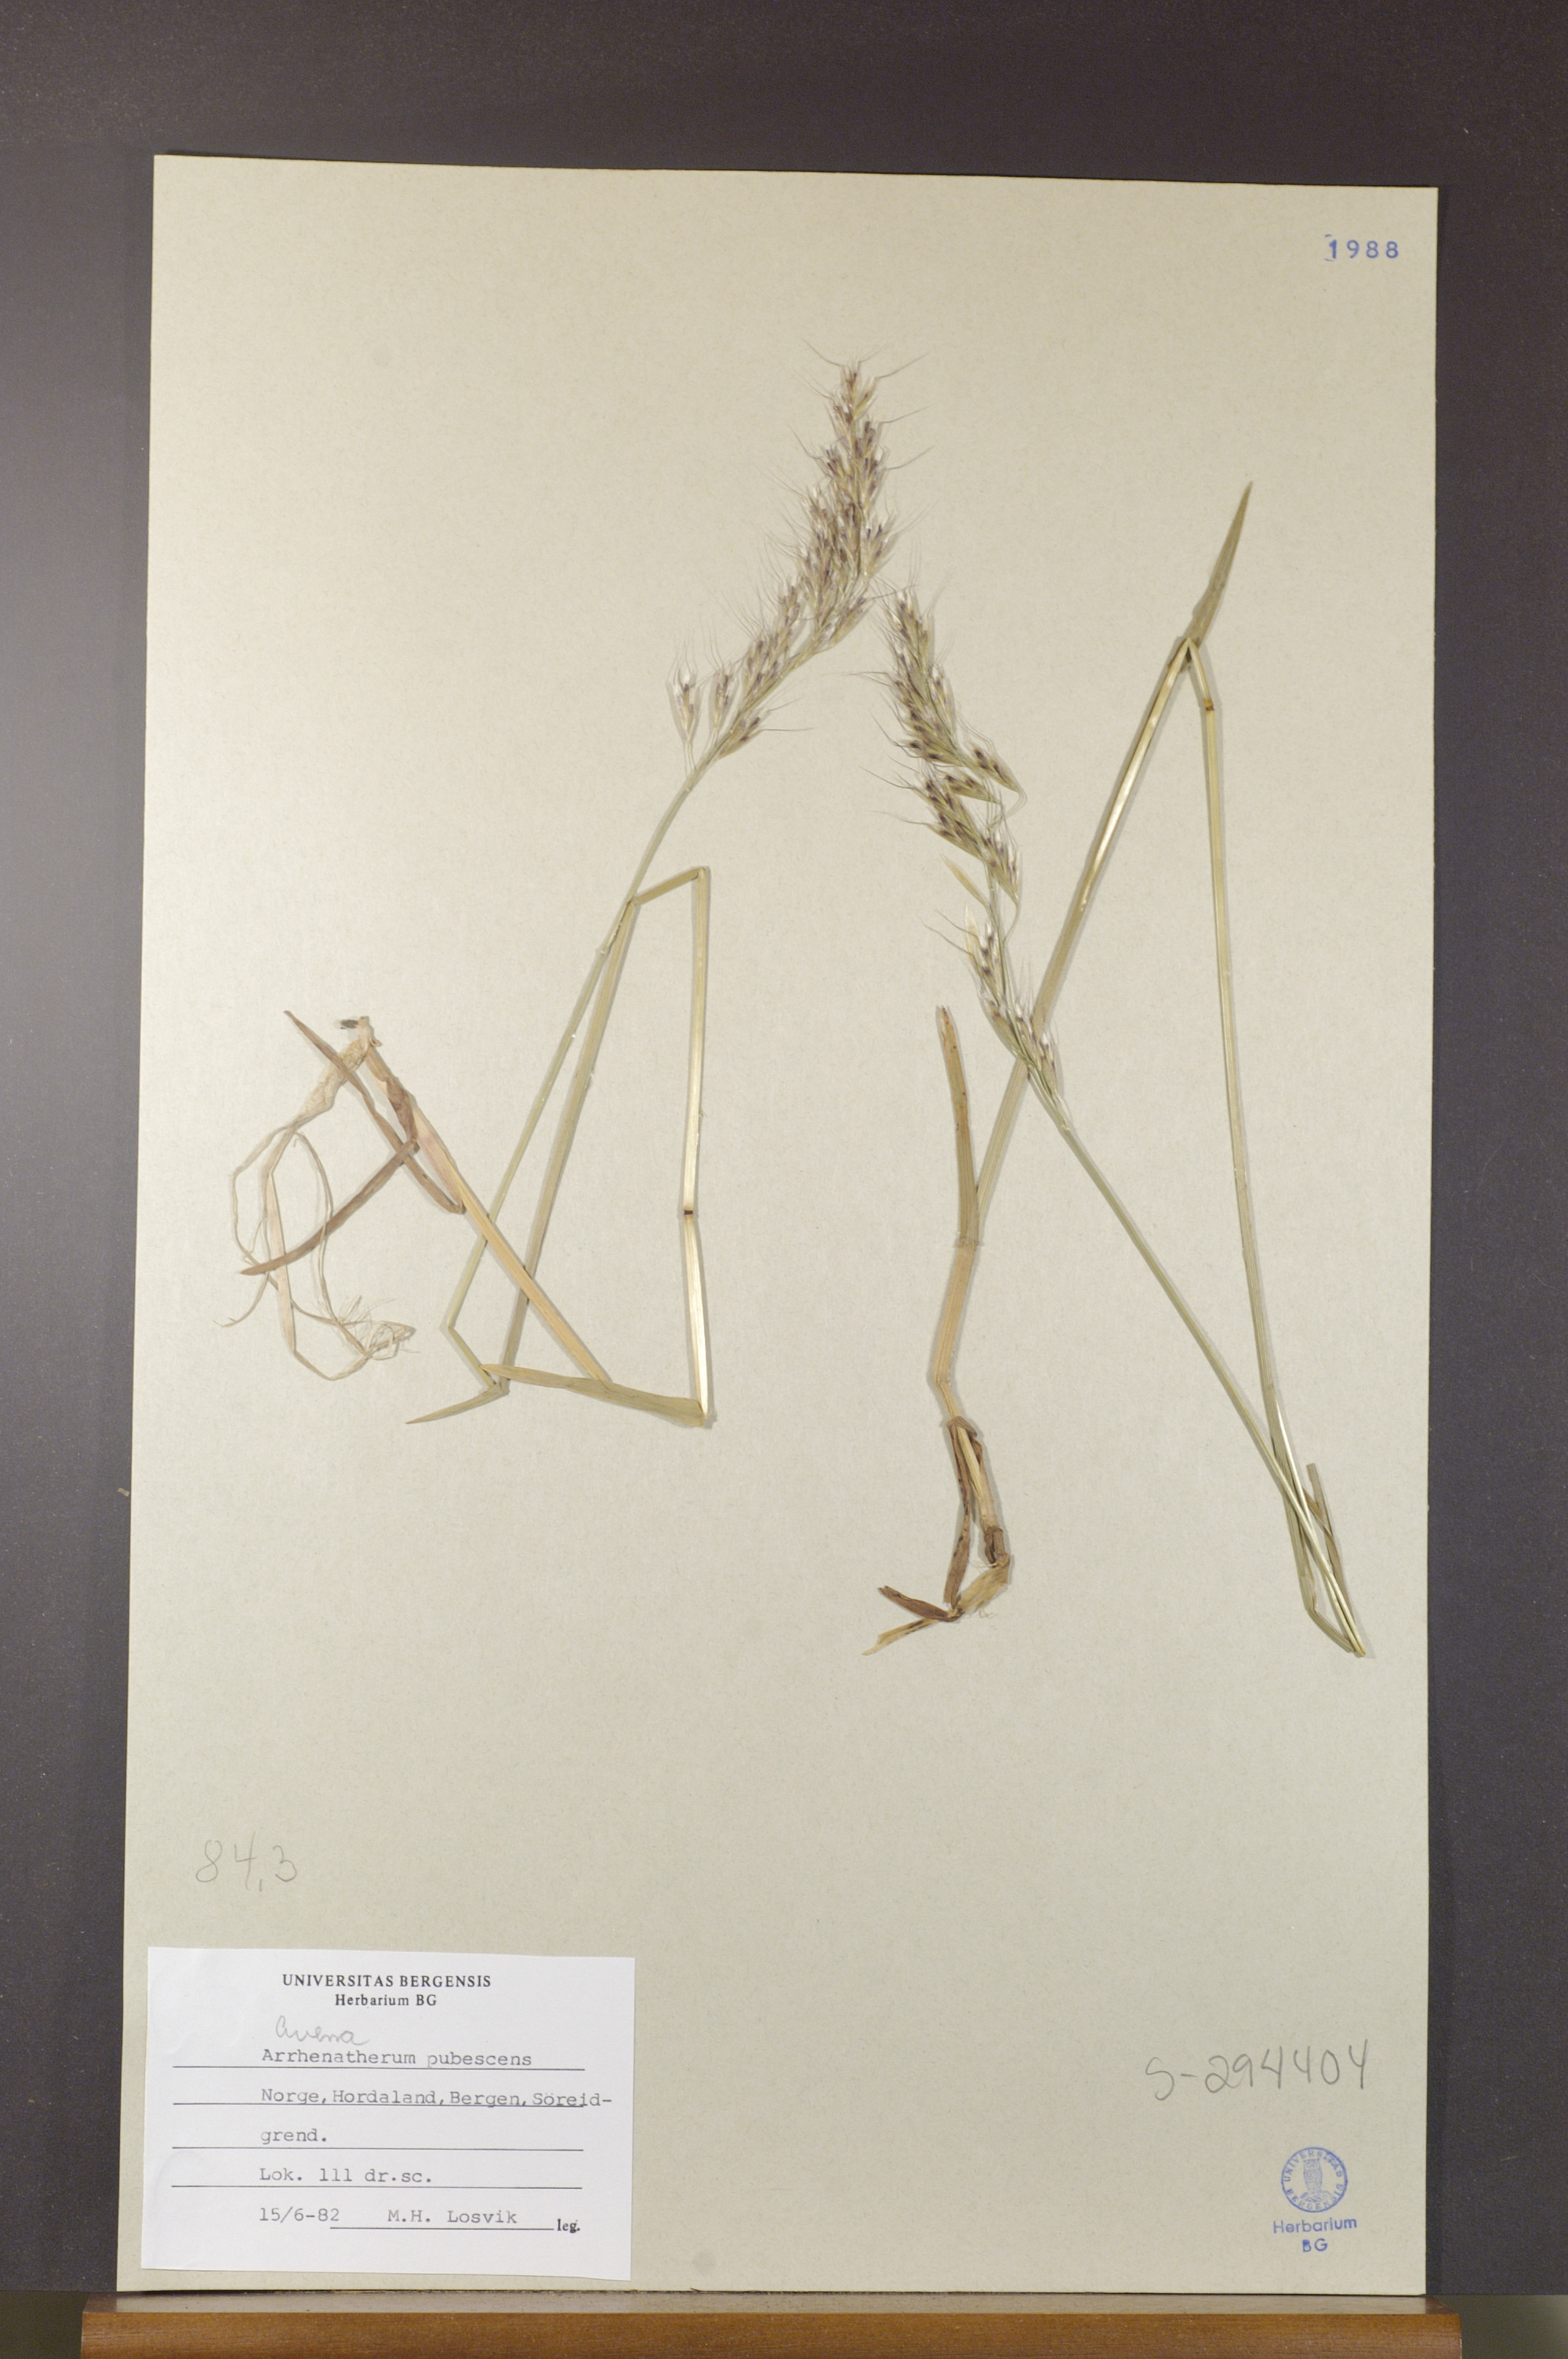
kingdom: Plantae
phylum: Tracheophyta
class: Liliopsida
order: Poales
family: Poaceae
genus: Avenula
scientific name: Avenula pubescens
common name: Downy alpine oatgrass
